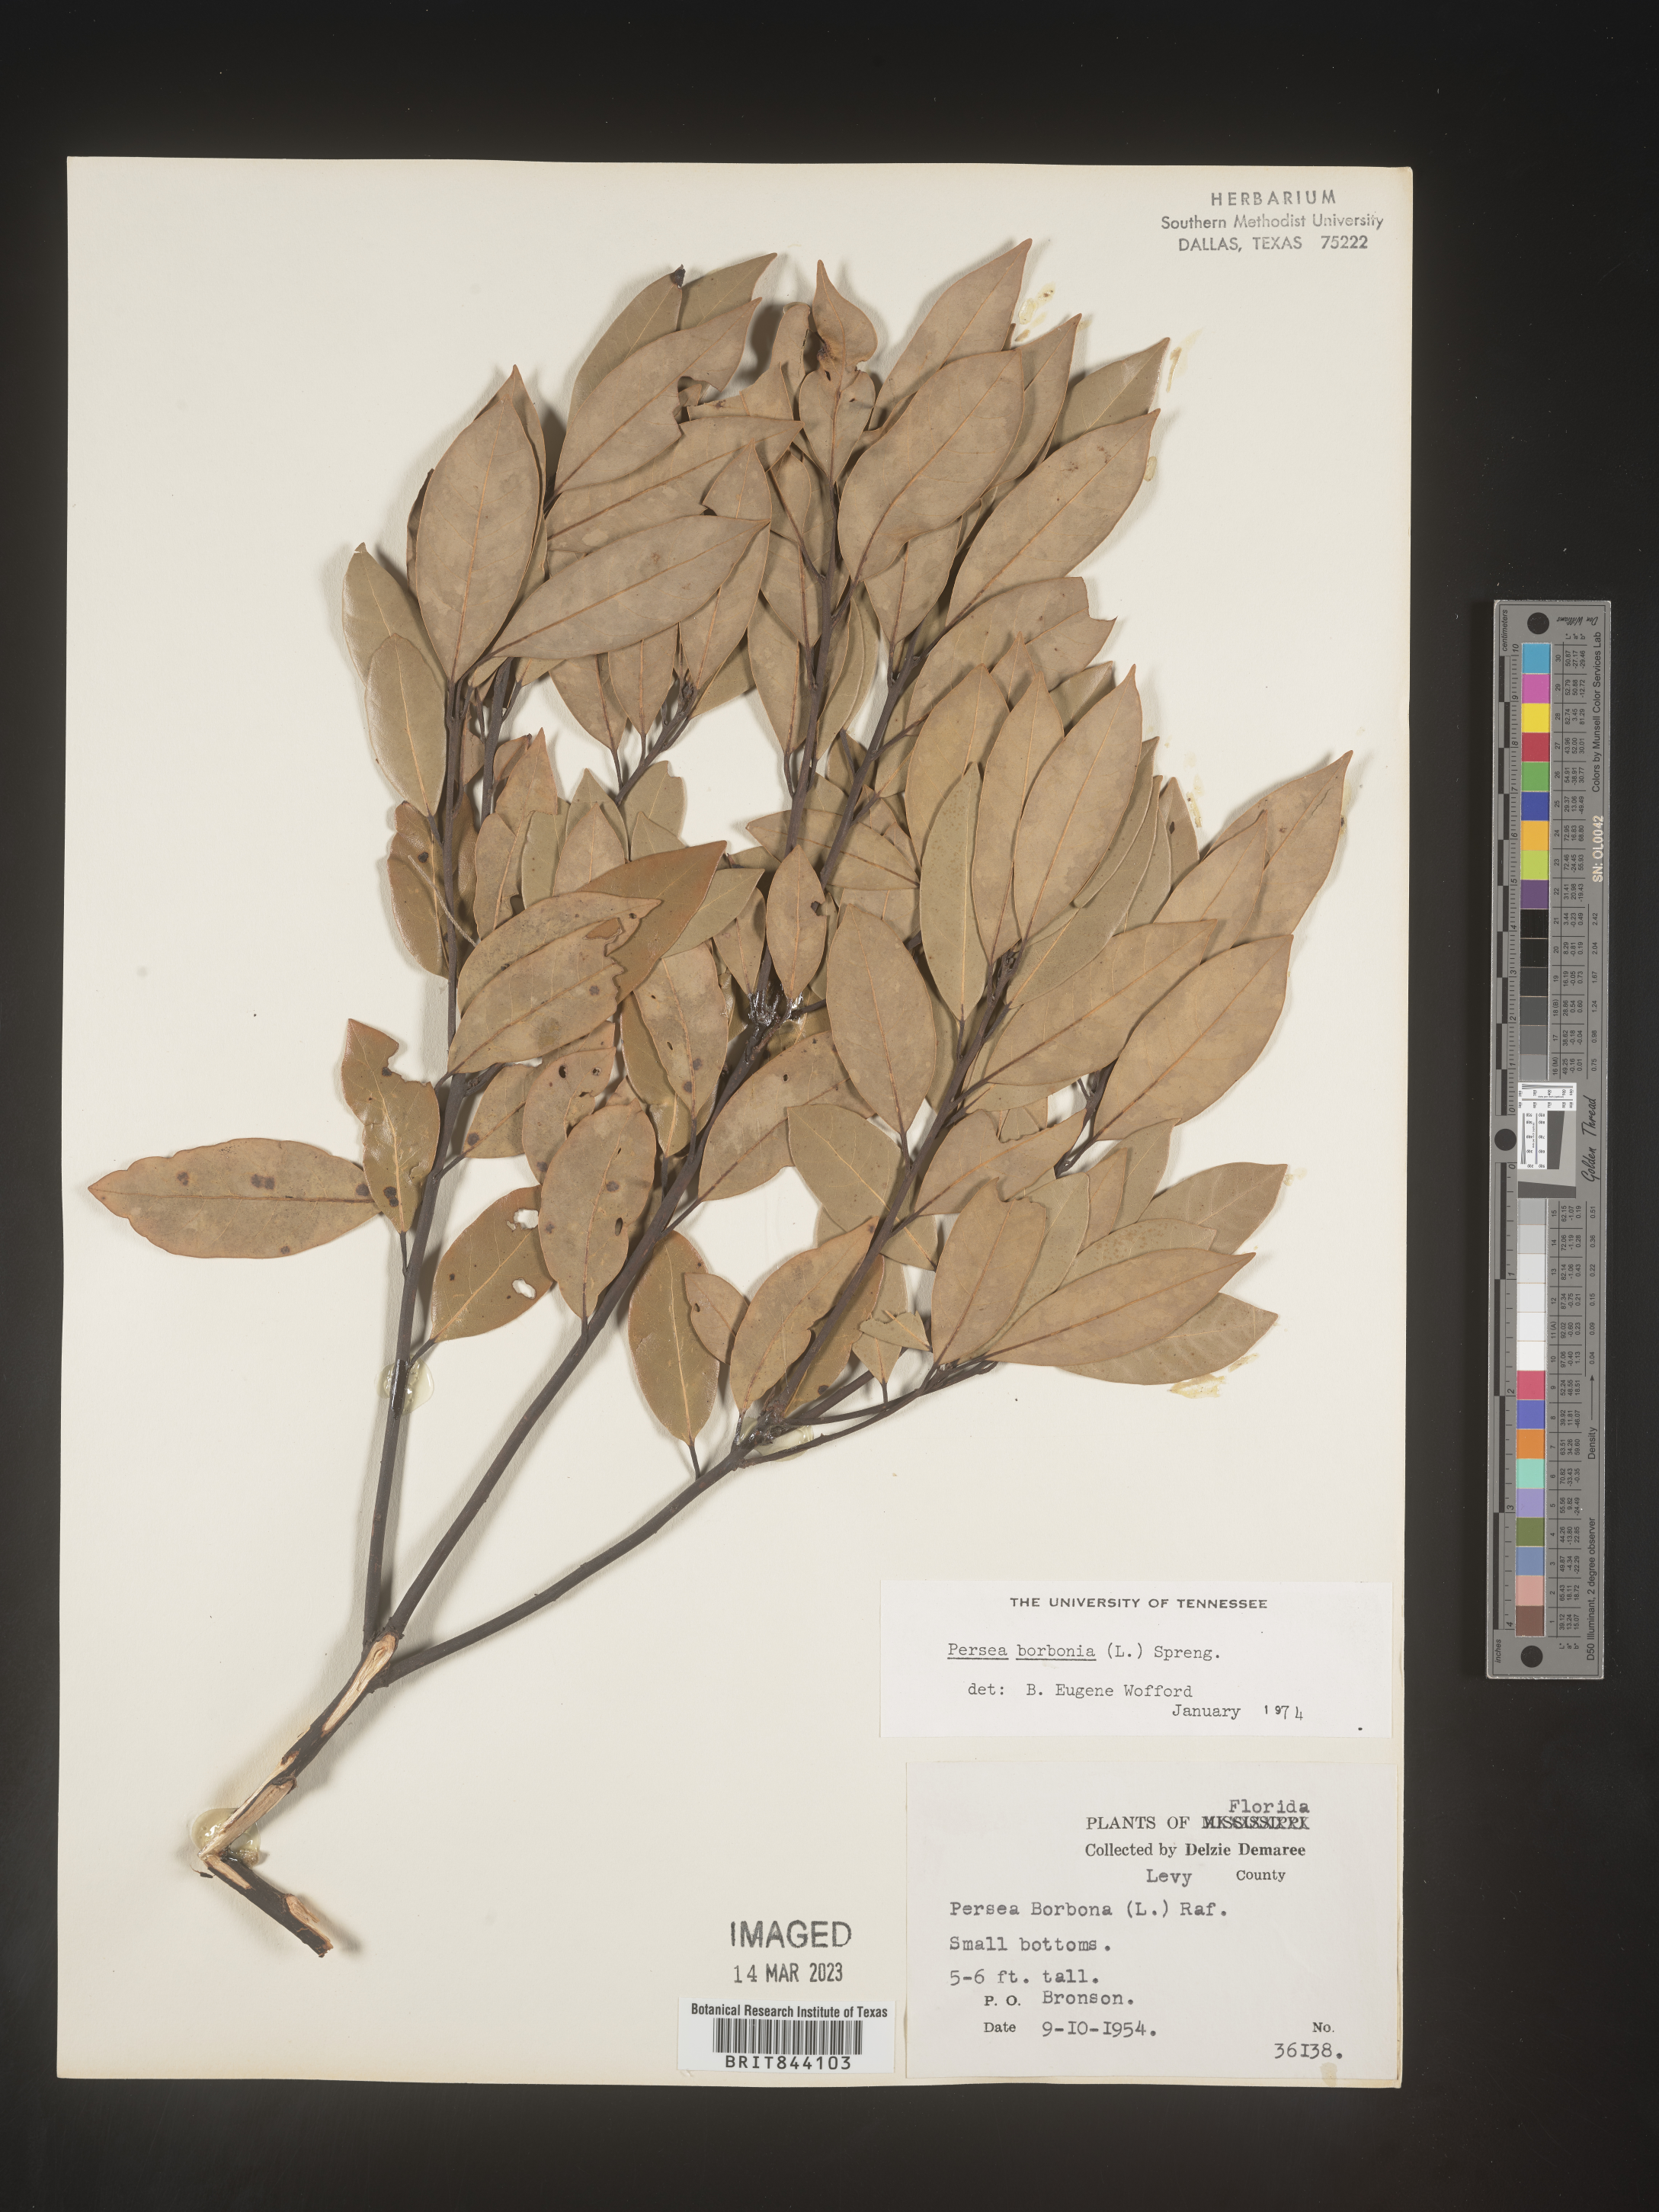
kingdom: Plantae
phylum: Tracheophyta
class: Magnoliopsida
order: Laurales
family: Lauraceae
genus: Persea
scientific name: Persea borbonia
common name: Redbay
